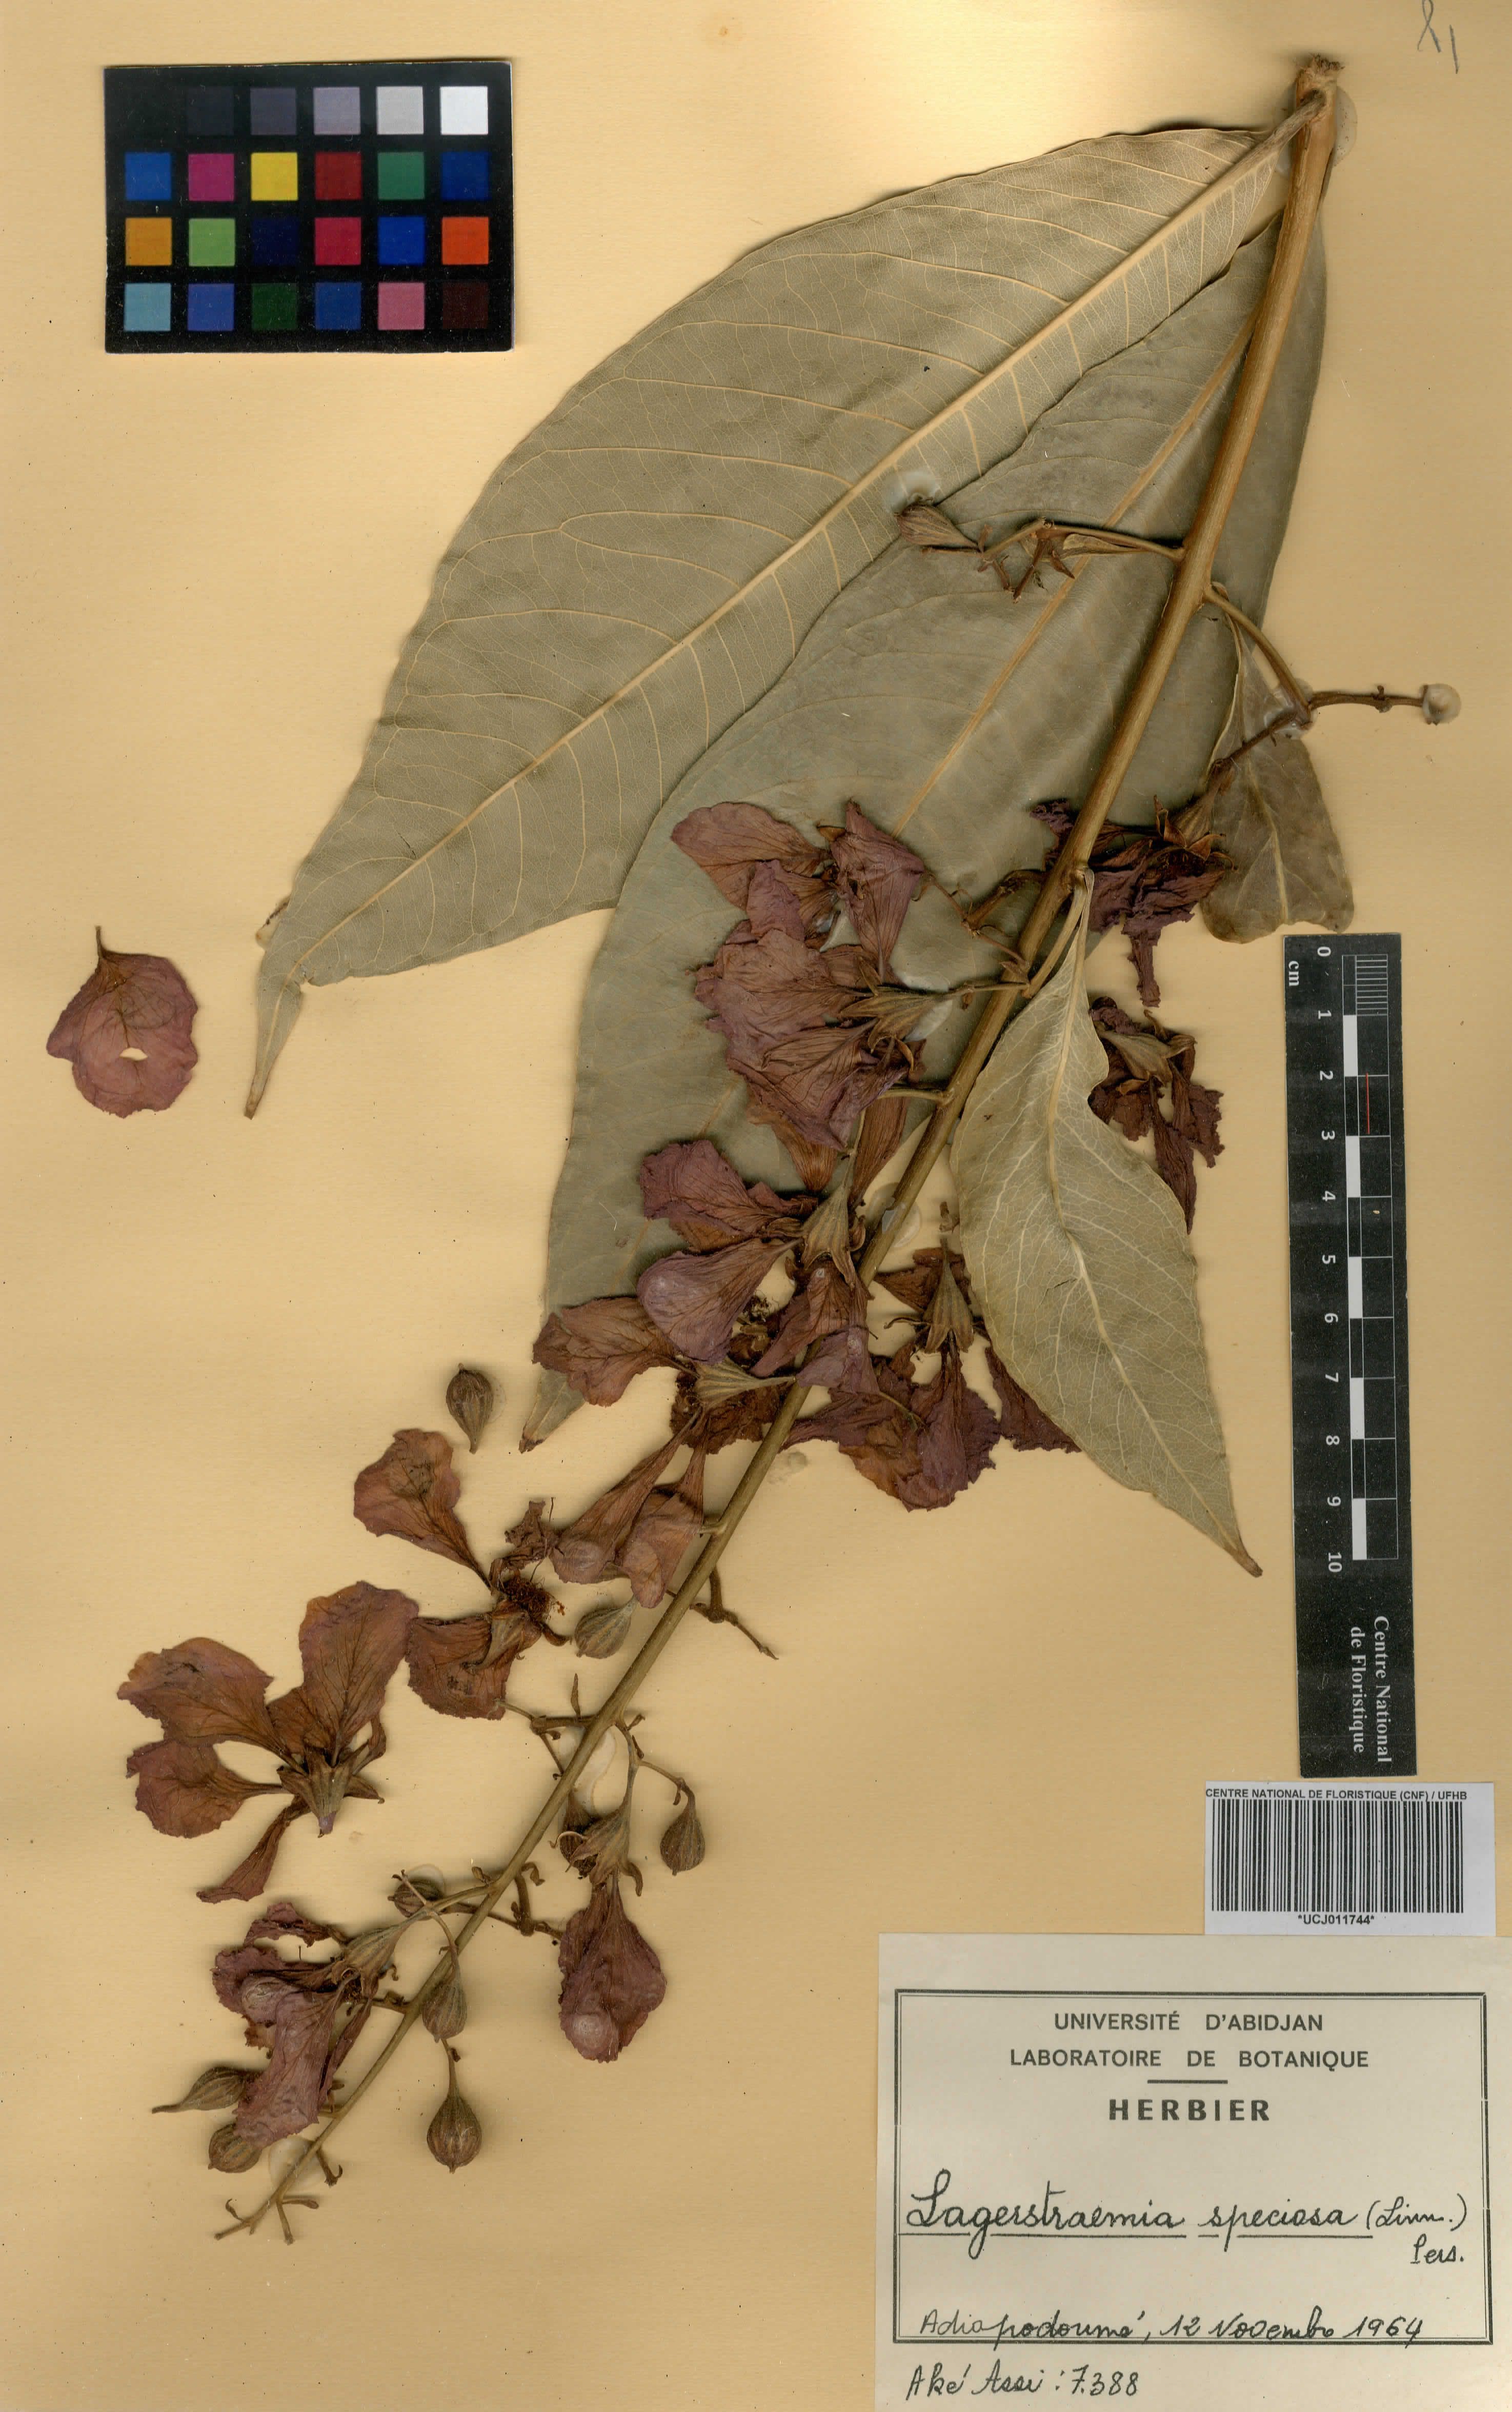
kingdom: Plantae
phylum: Tracheophyta
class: Magnoliopsida
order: Myrtales
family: Lythraceae
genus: Lagerstroemia
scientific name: Lagerstroemia speciosa
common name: Queen's crape-myrtle
